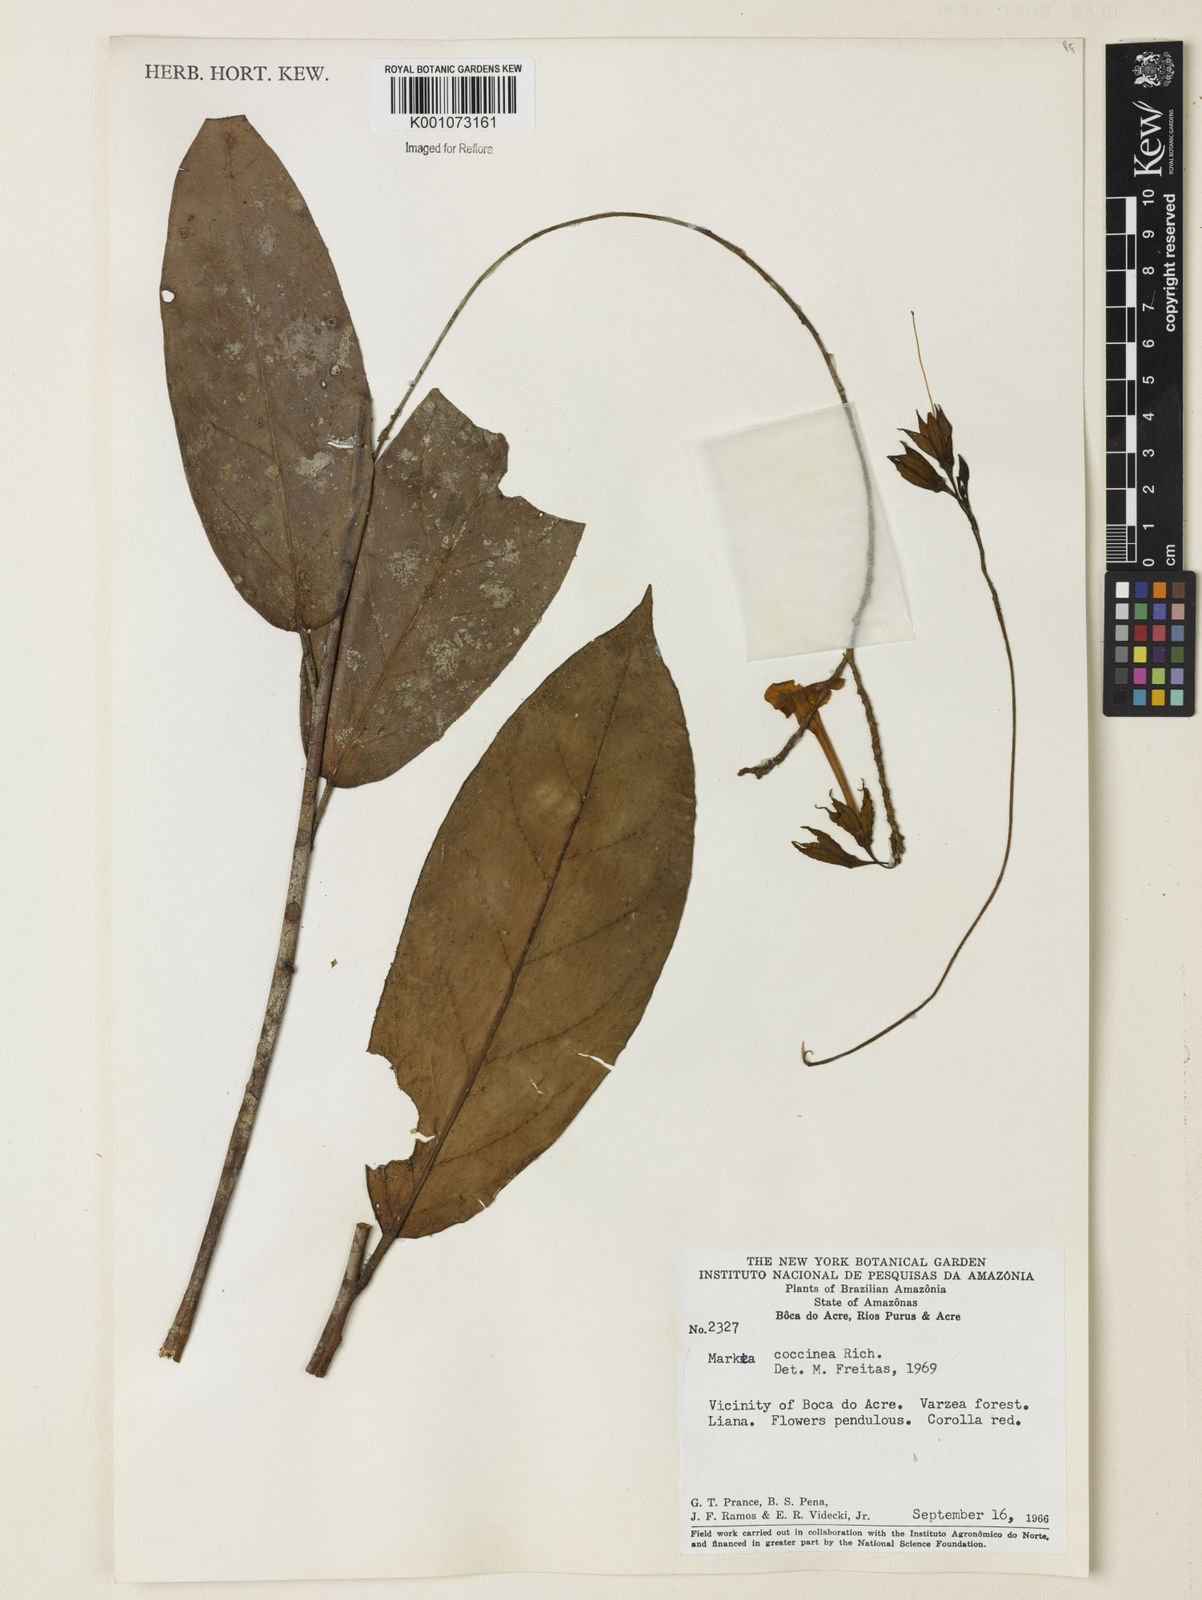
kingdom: Plantae
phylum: Tracheophyta
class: Magnoliopsida
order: Solanales
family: Solanaceae
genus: Markea
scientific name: Markea coccinea
